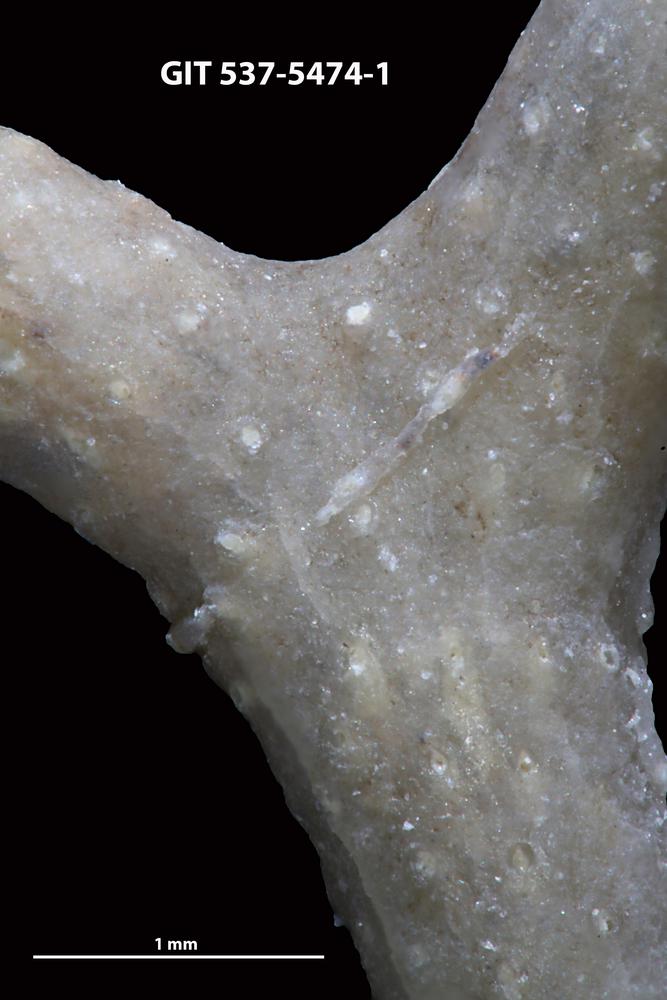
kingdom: Animalia
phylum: Bryozoa
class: Stenolaemata
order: Cyclostomatida
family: Corynotrypidae
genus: Corynotrypa
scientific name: Corynotrypa
